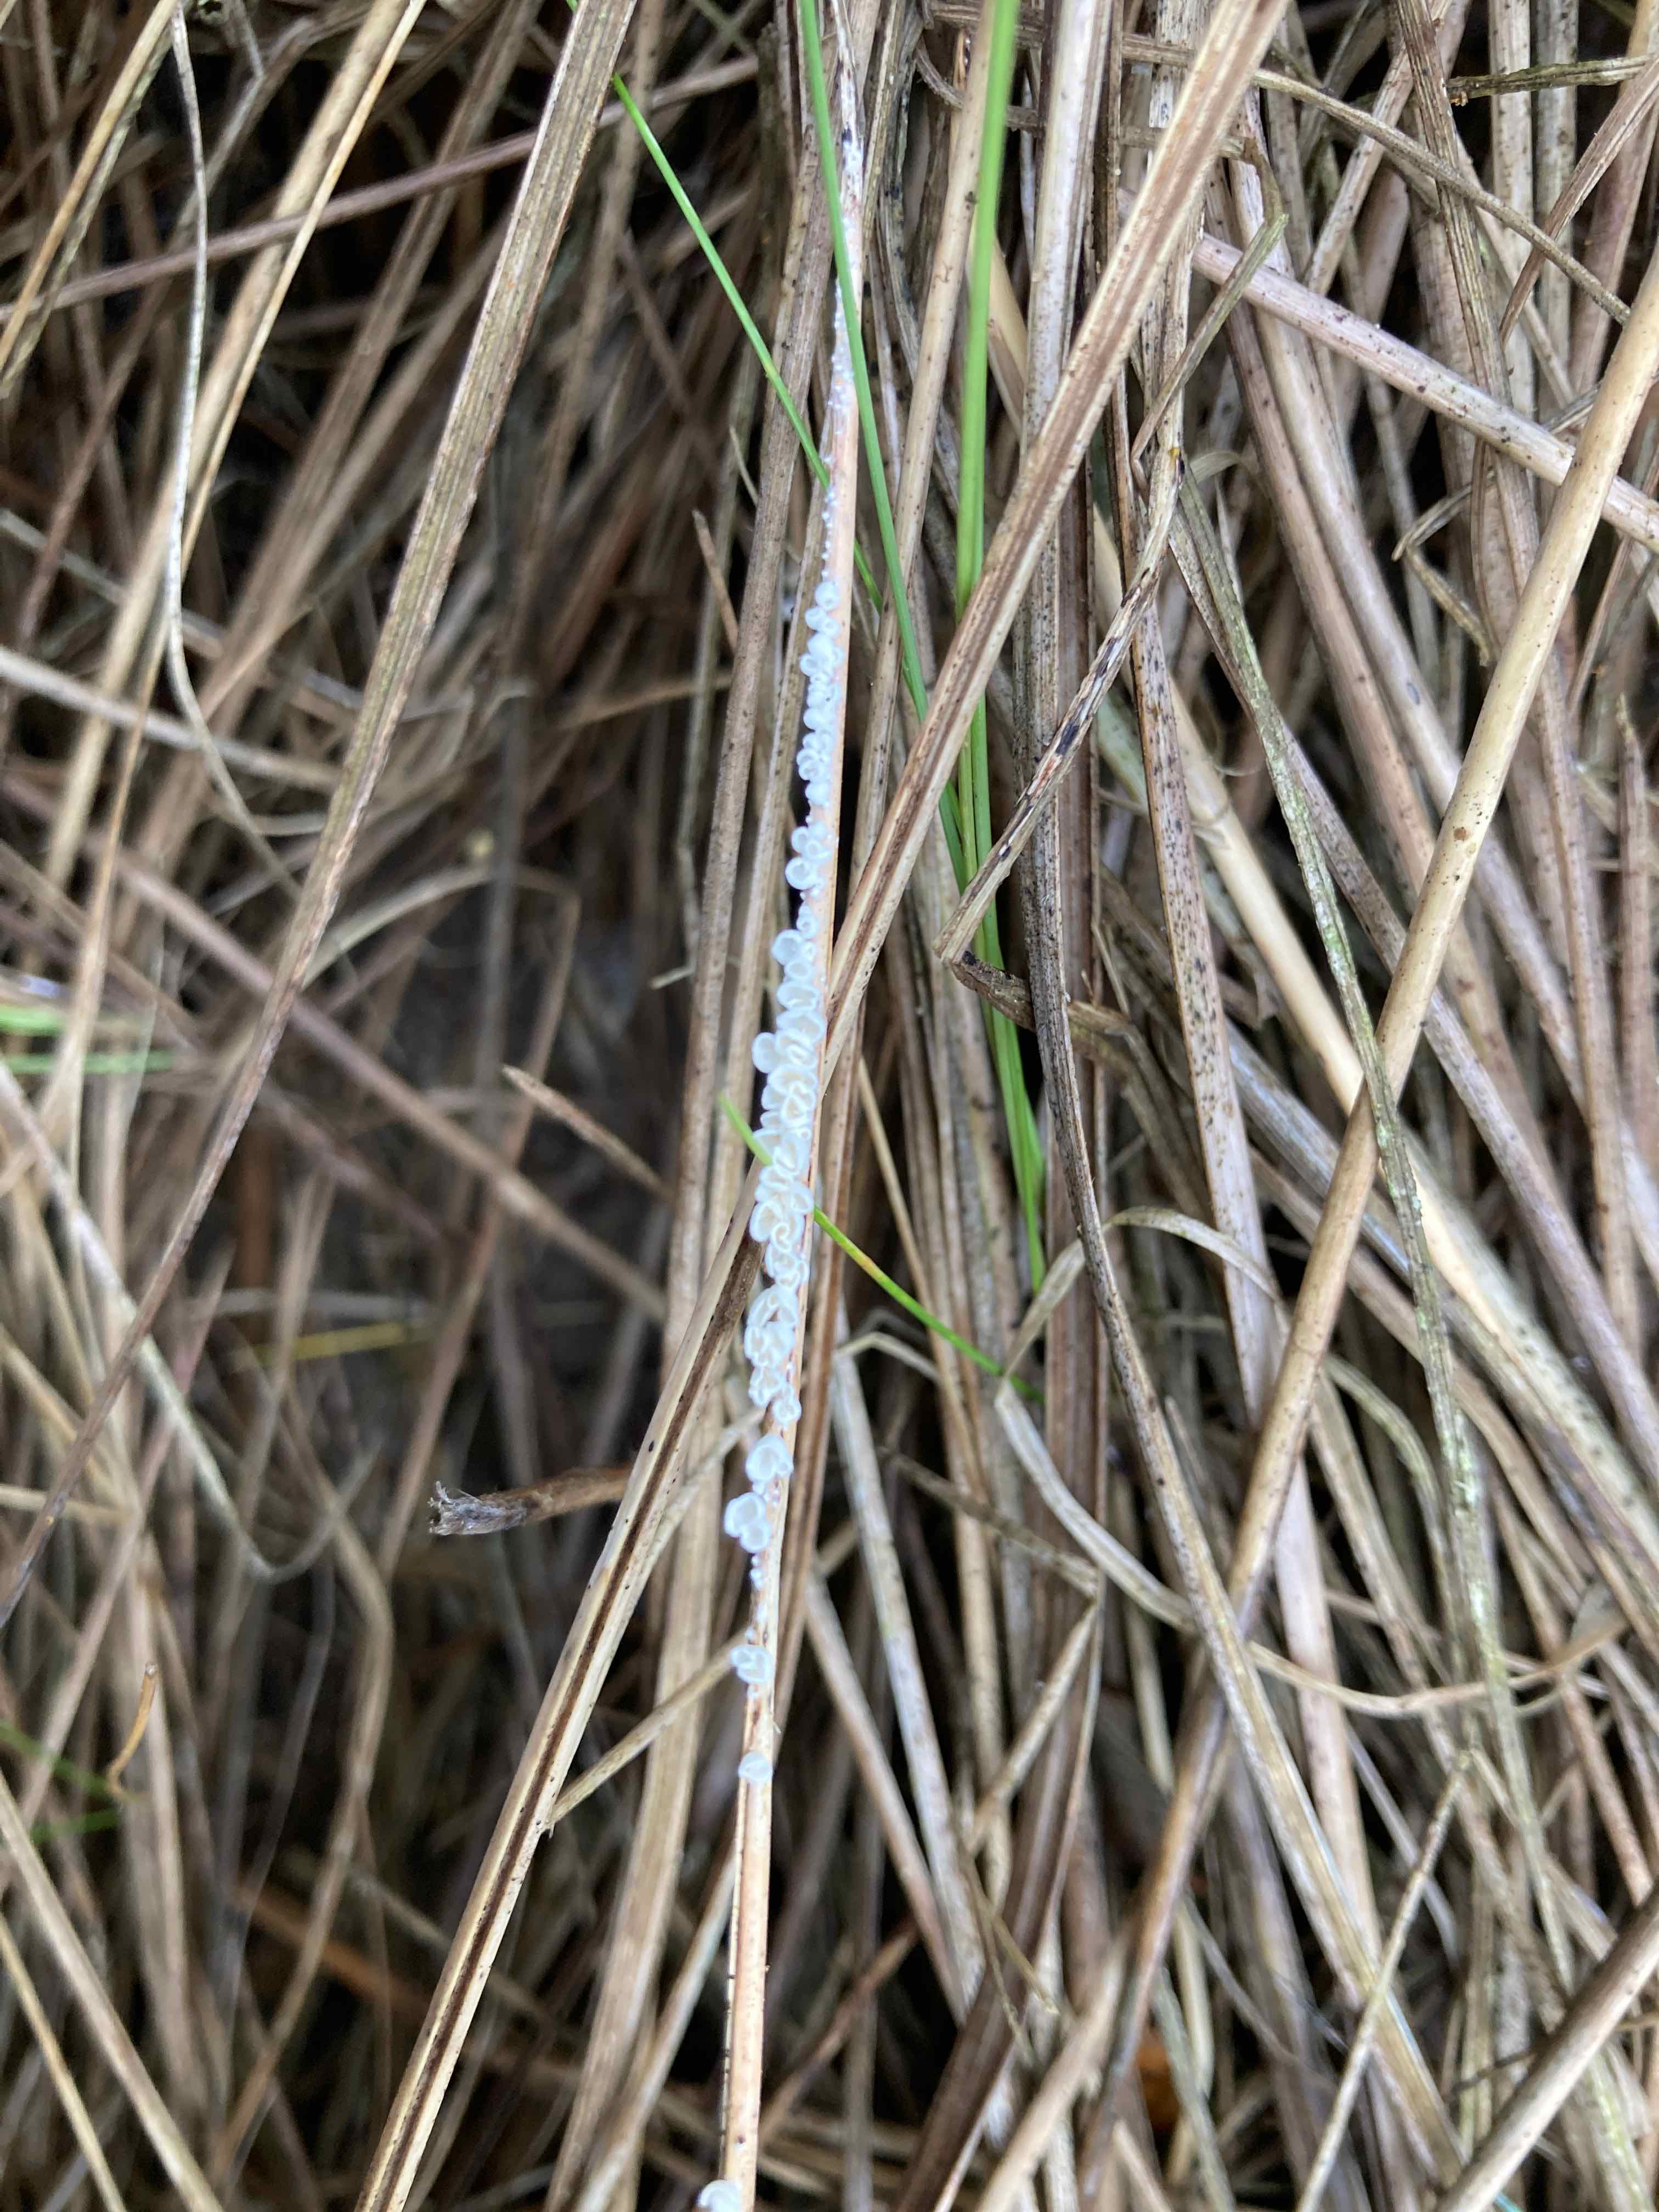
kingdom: Fungi
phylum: Basidiomycota
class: Agaricomycetes
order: Agaricales
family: Tricholomataceae
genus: Cellypha
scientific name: Cellypha goldbachii
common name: dråbeskål
